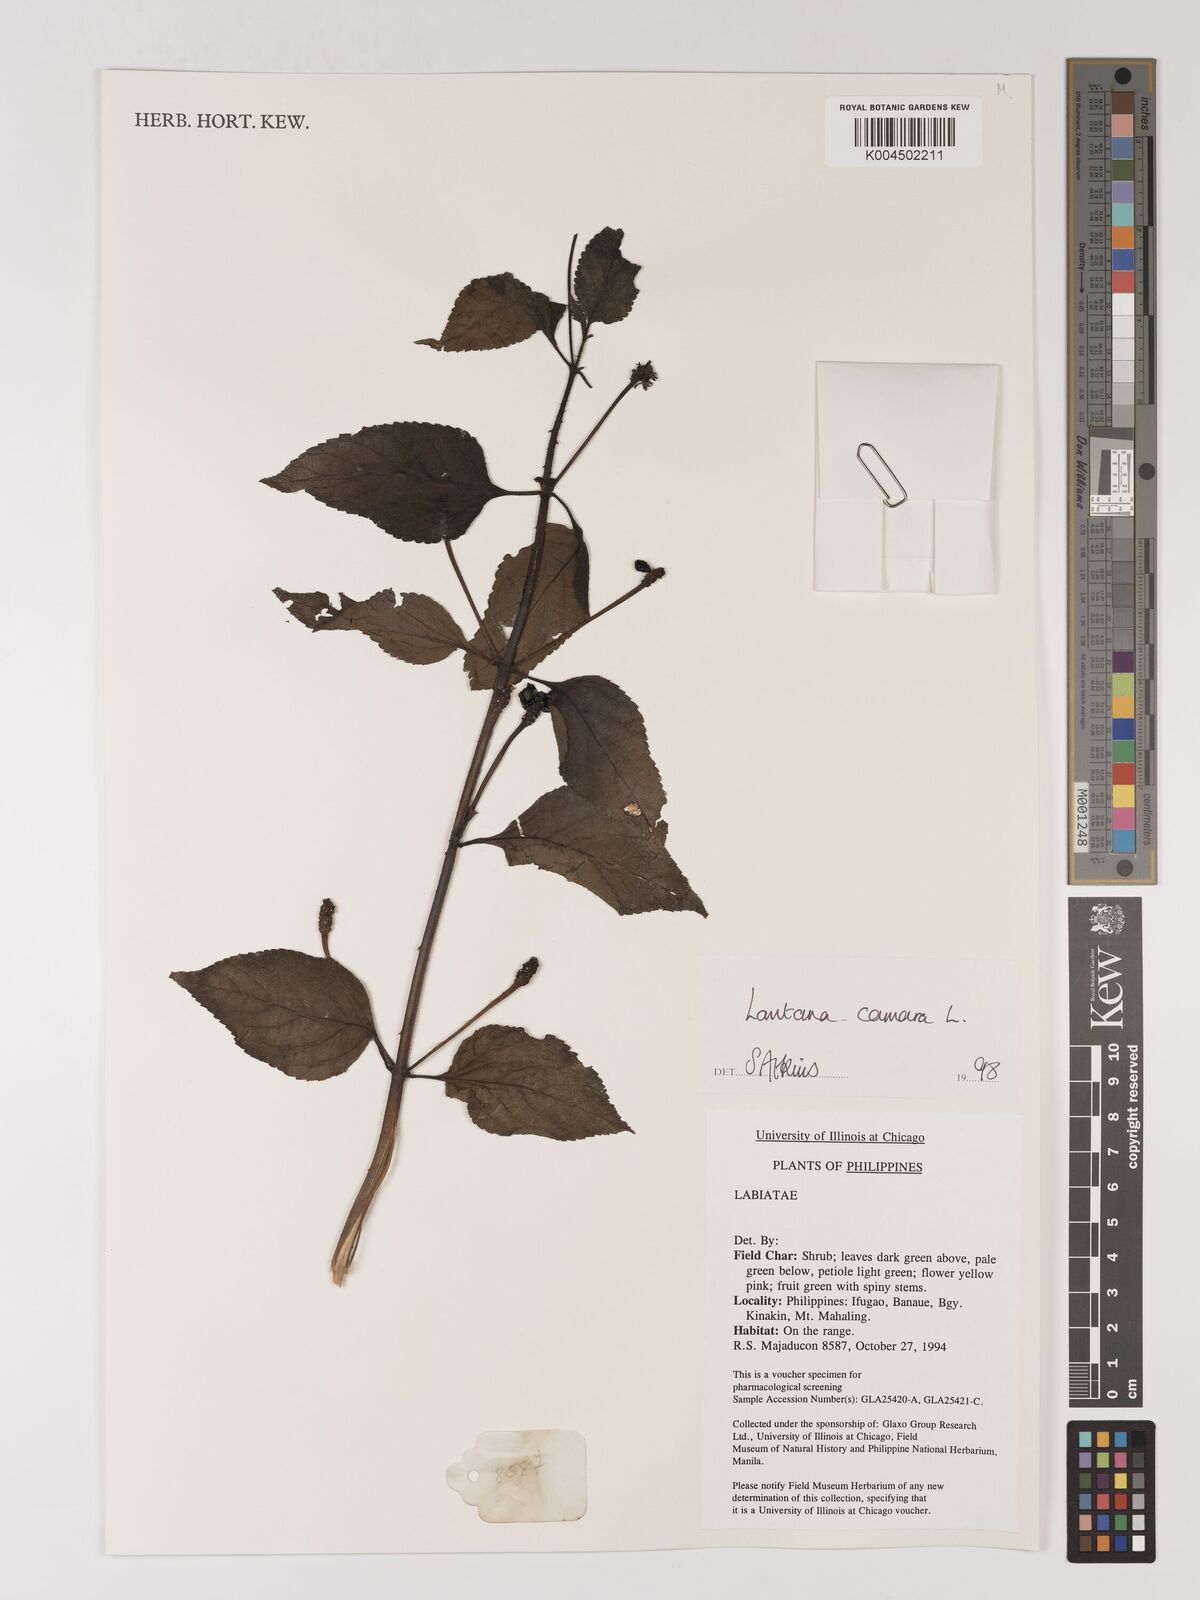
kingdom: Plantae
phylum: Tracheophyta
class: Magnoliopsida
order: Lamiales
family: Verbenaceae
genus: Lantana
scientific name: Lantana
